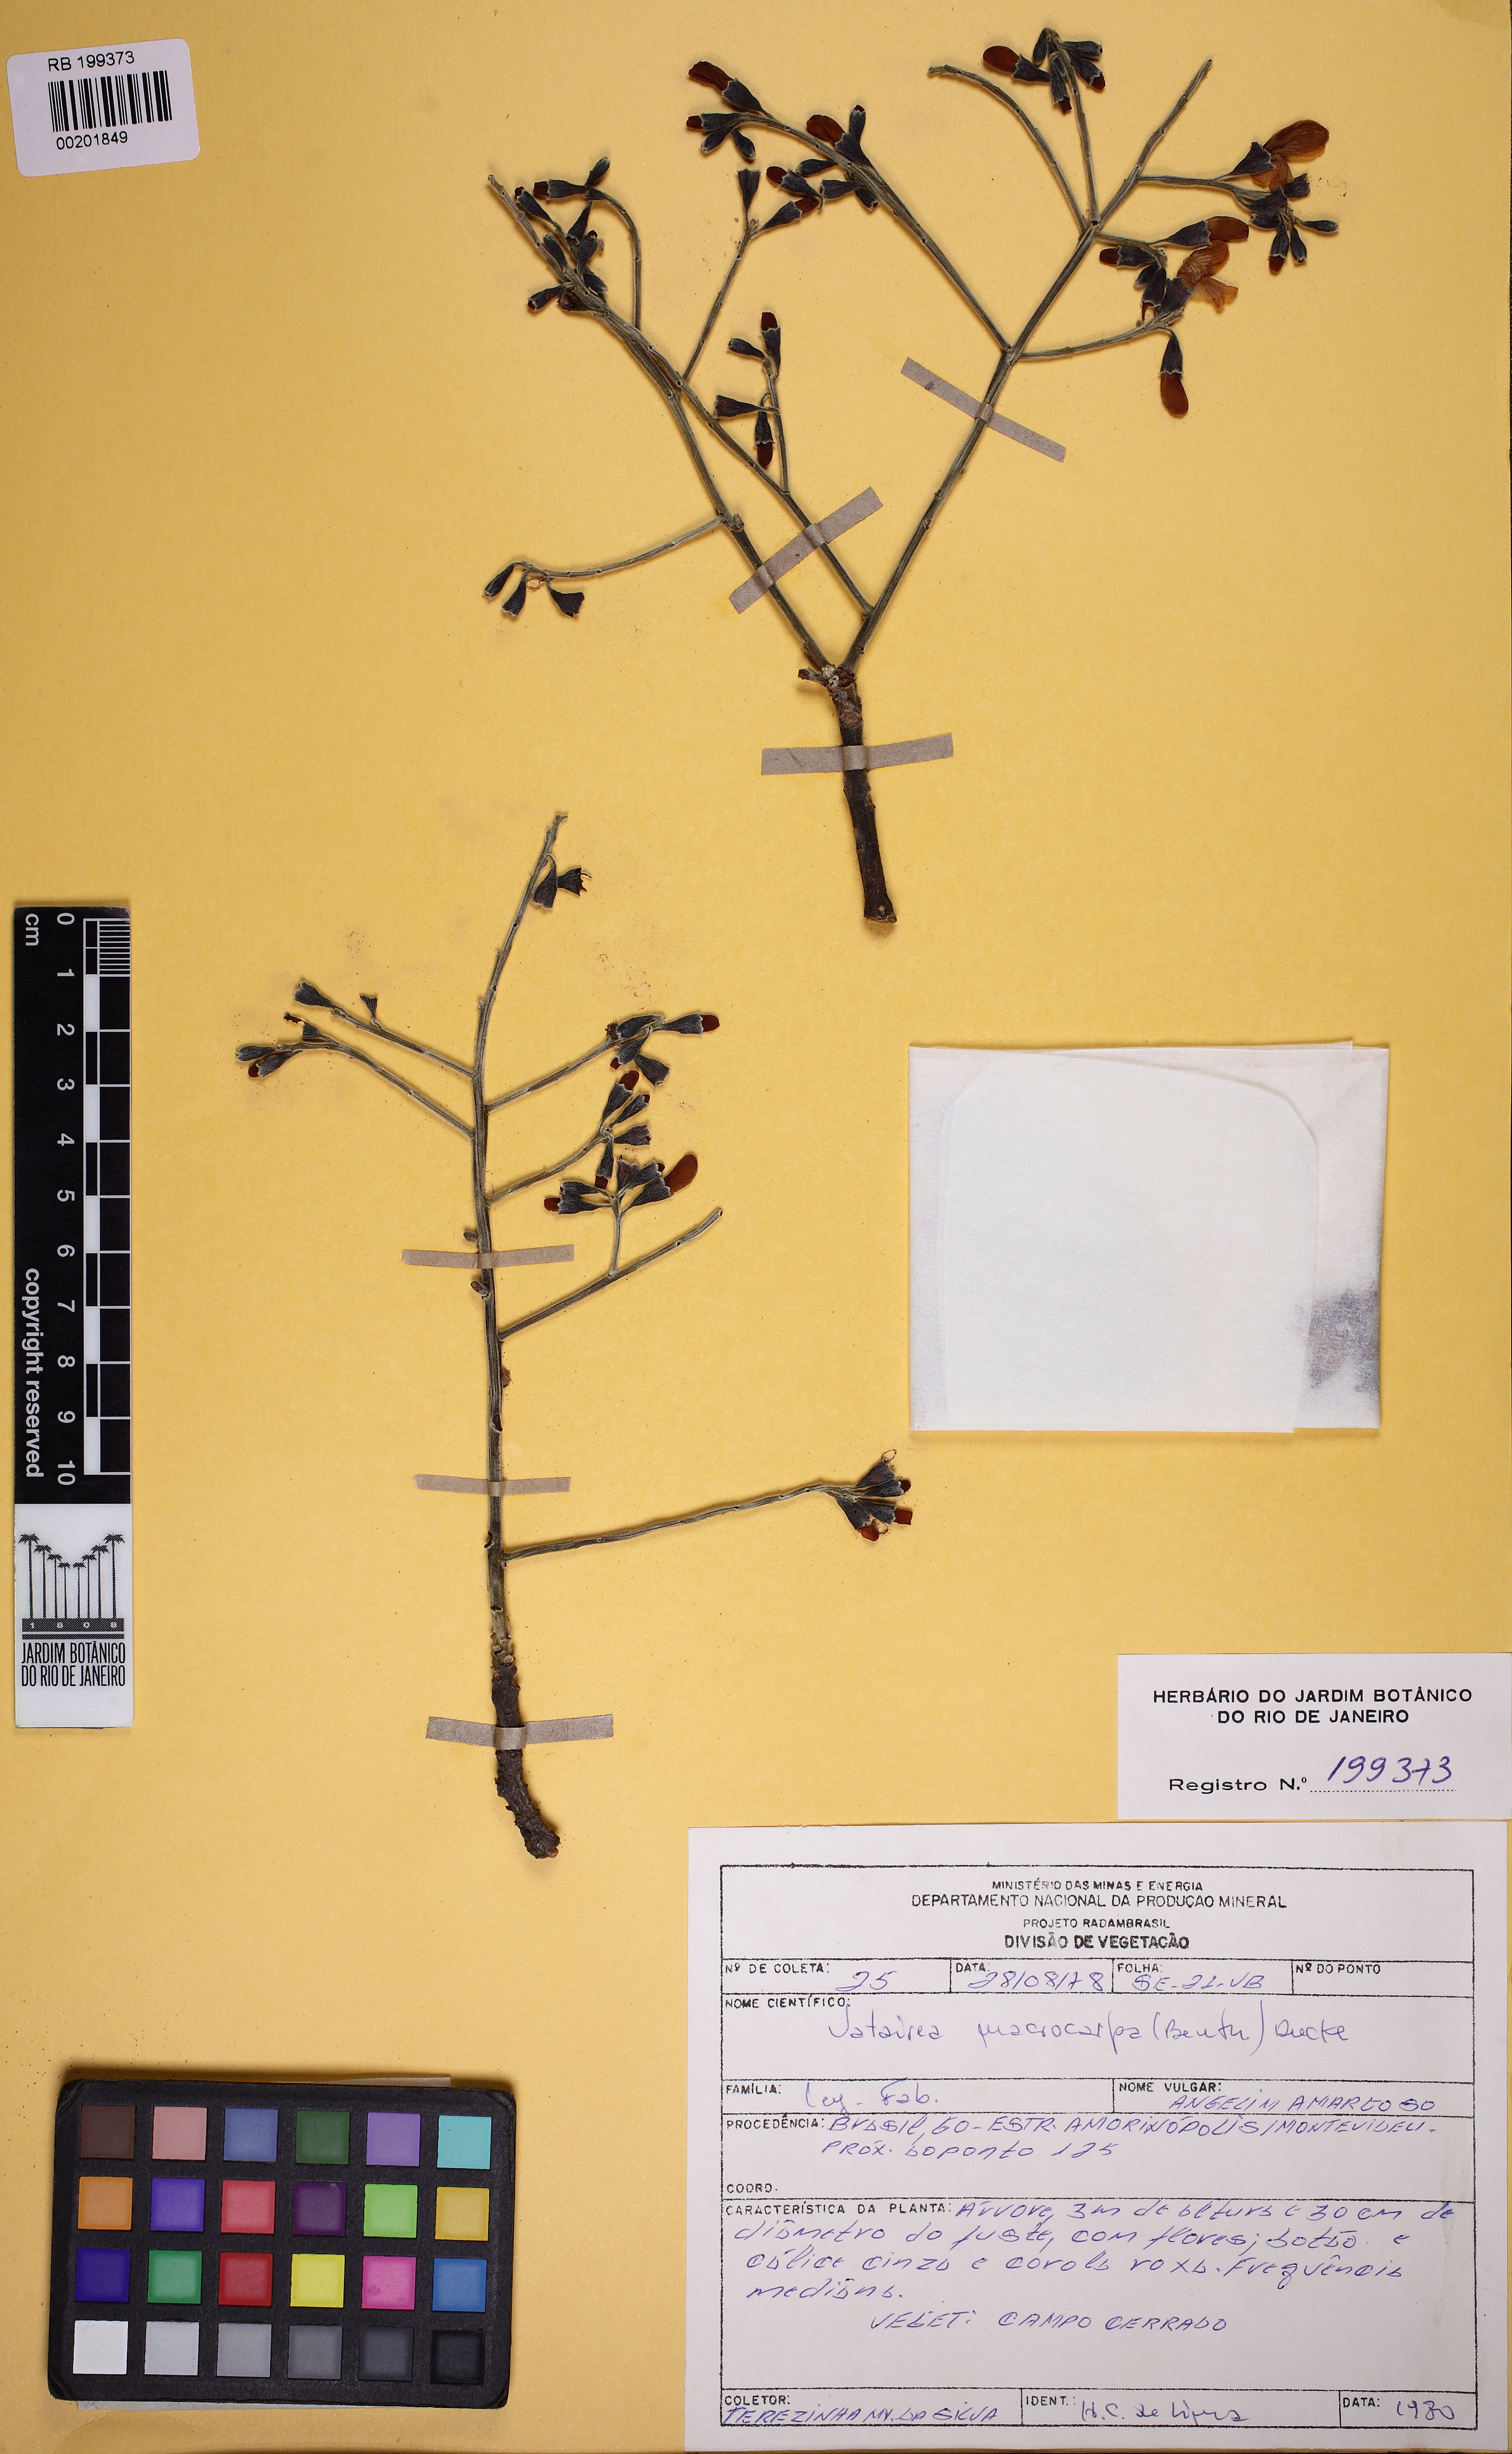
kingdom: Plantae
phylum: Tracheophyta
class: Magnoliopsida
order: Fabales
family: Fabaceae
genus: Vatairea
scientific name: Vatairea macrocarpa
